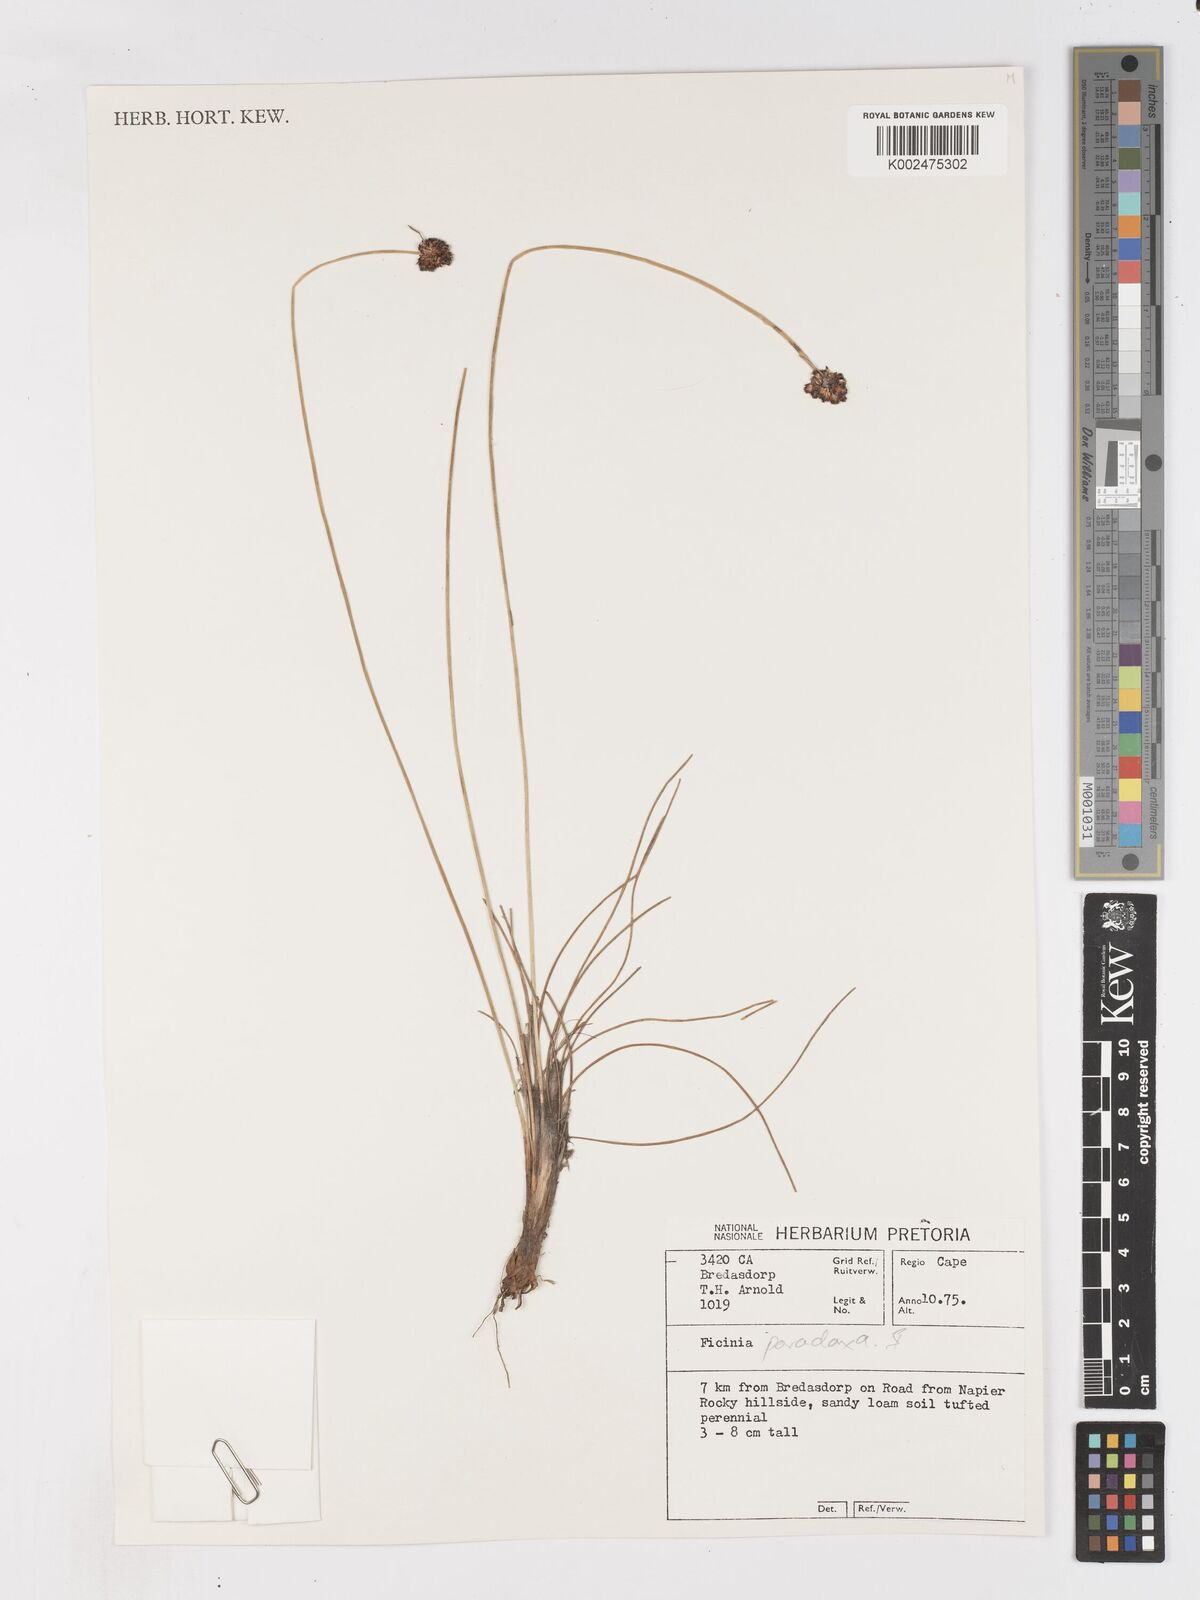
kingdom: Plantae
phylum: Tracheophyta
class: Liliopsida
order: Poales
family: Cyperaceae
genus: Ficinia
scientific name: Ficinia paradoxa
